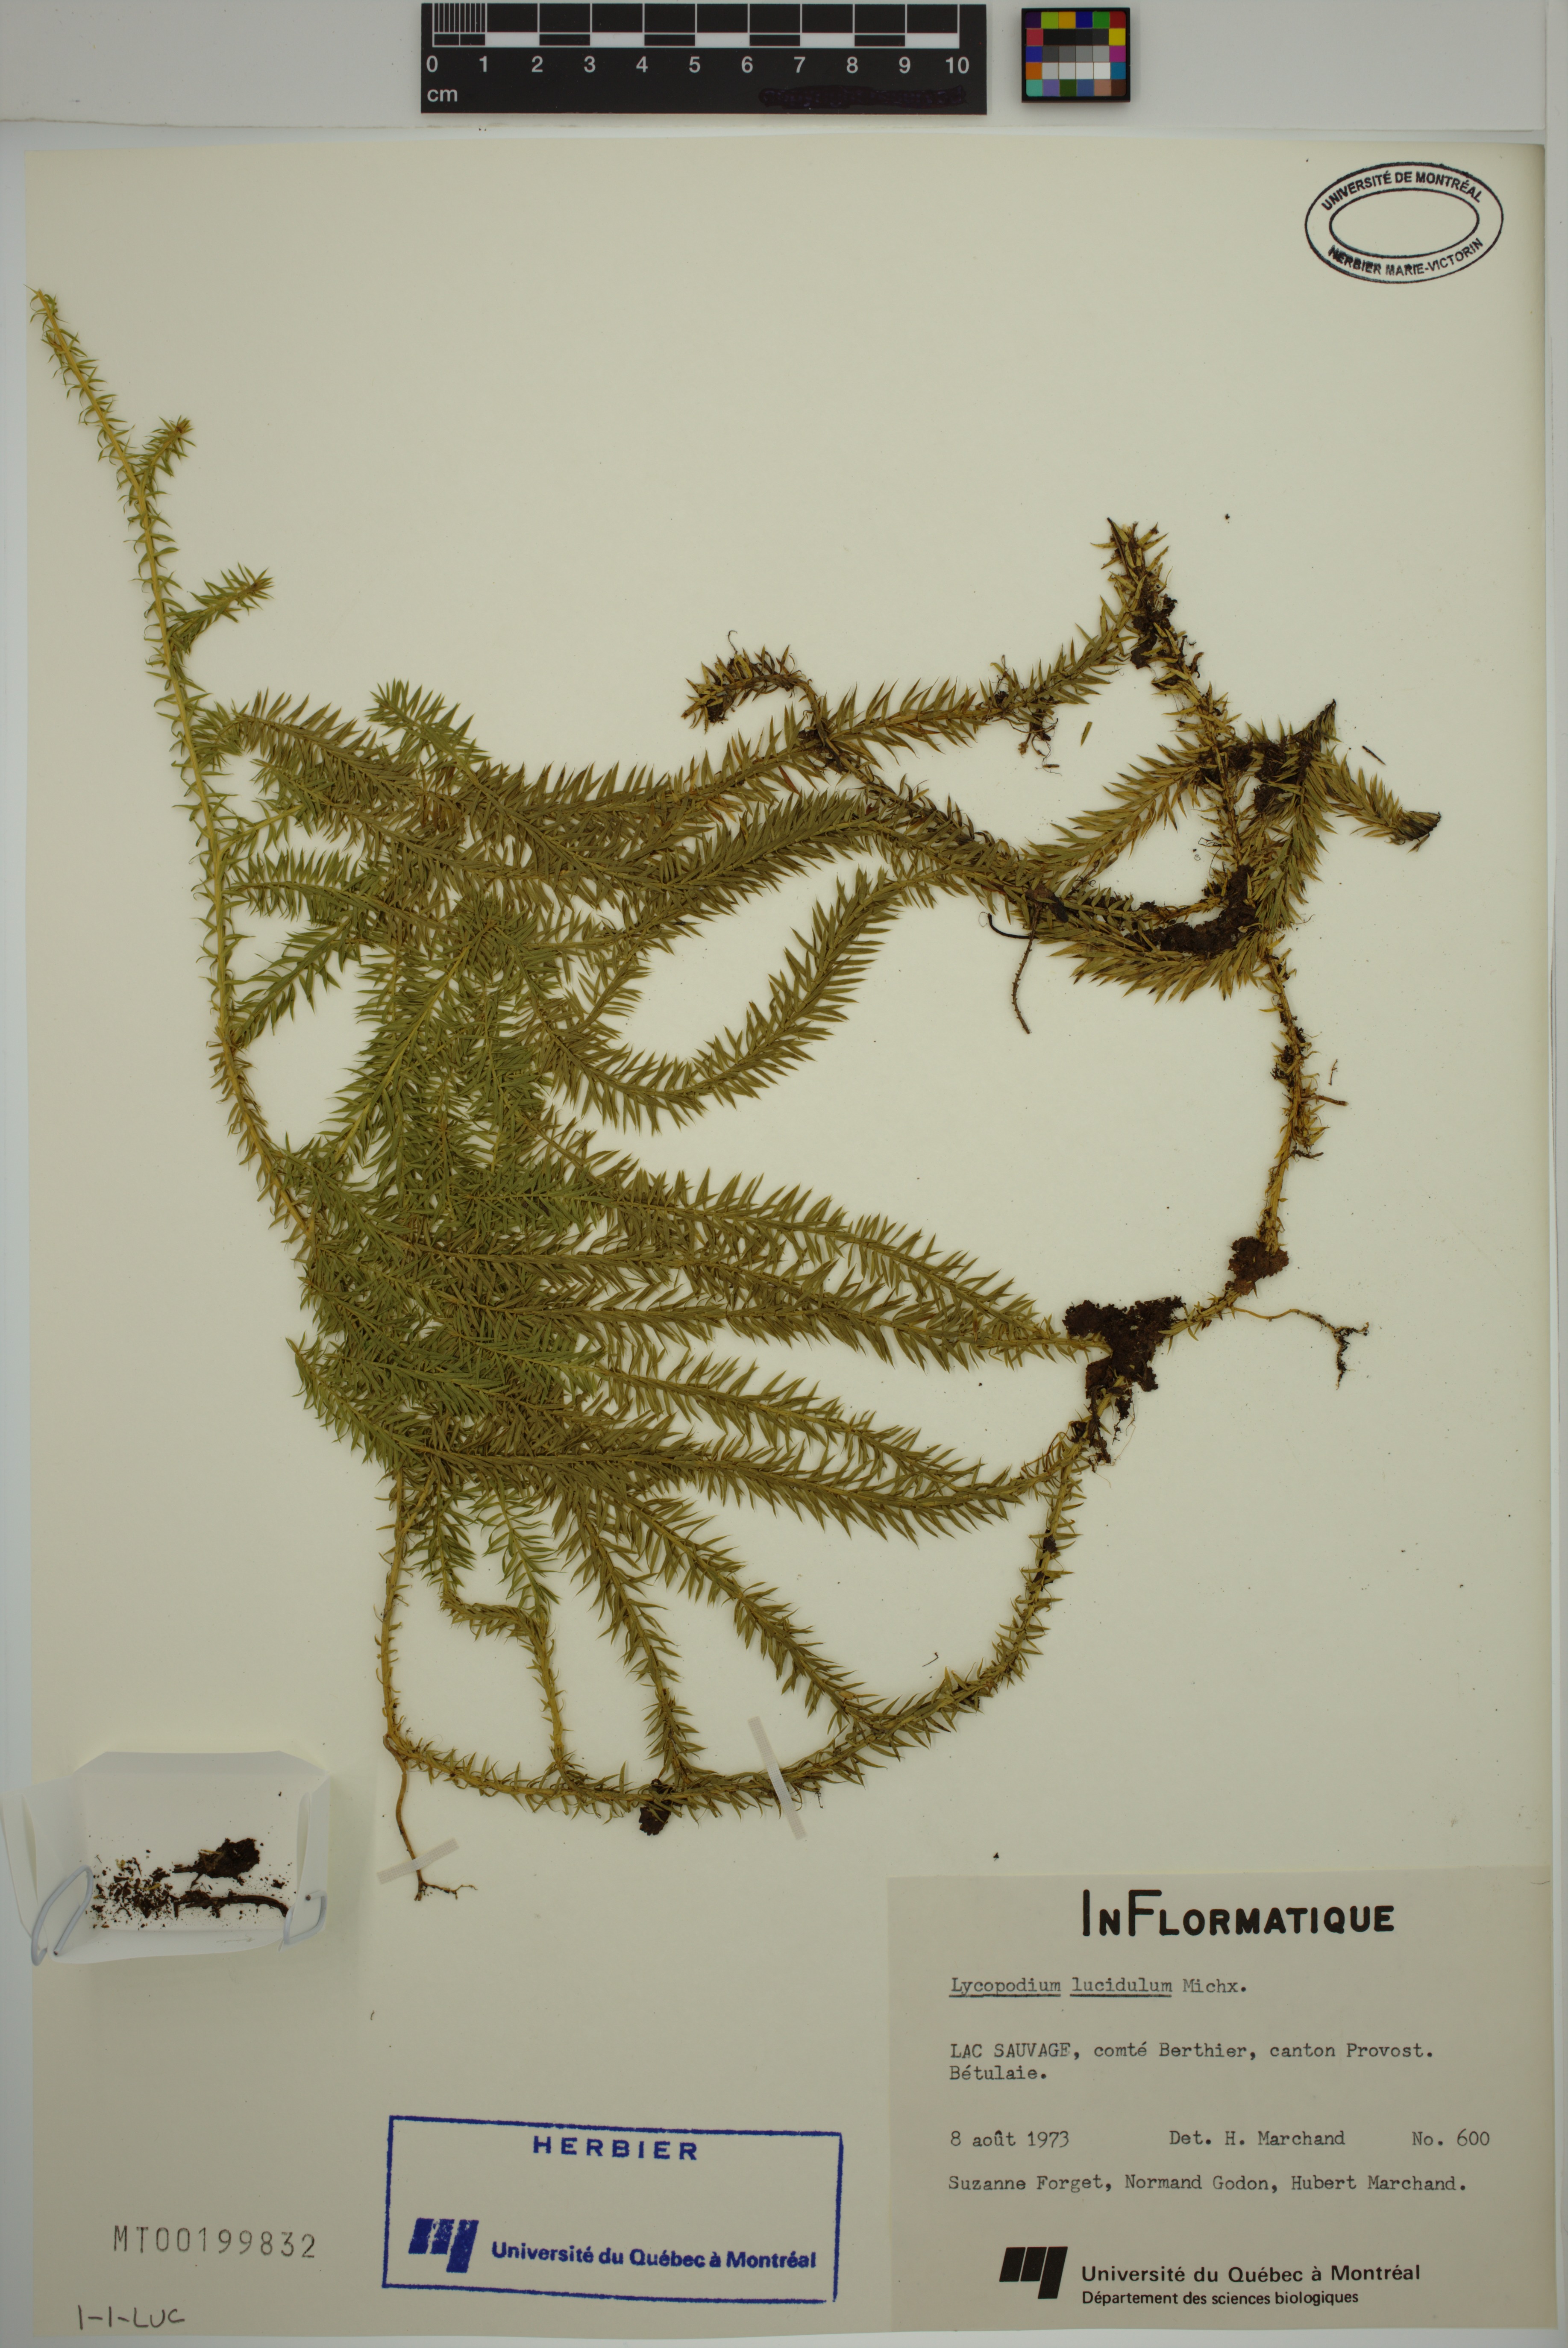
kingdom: Plantae
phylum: Tracheophyta
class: Lycopodiopsida
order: Lycopodiales
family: Lycopodiaceae
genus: Huperzia
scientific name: Huperzia lucidula
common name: Shining clubmoss
